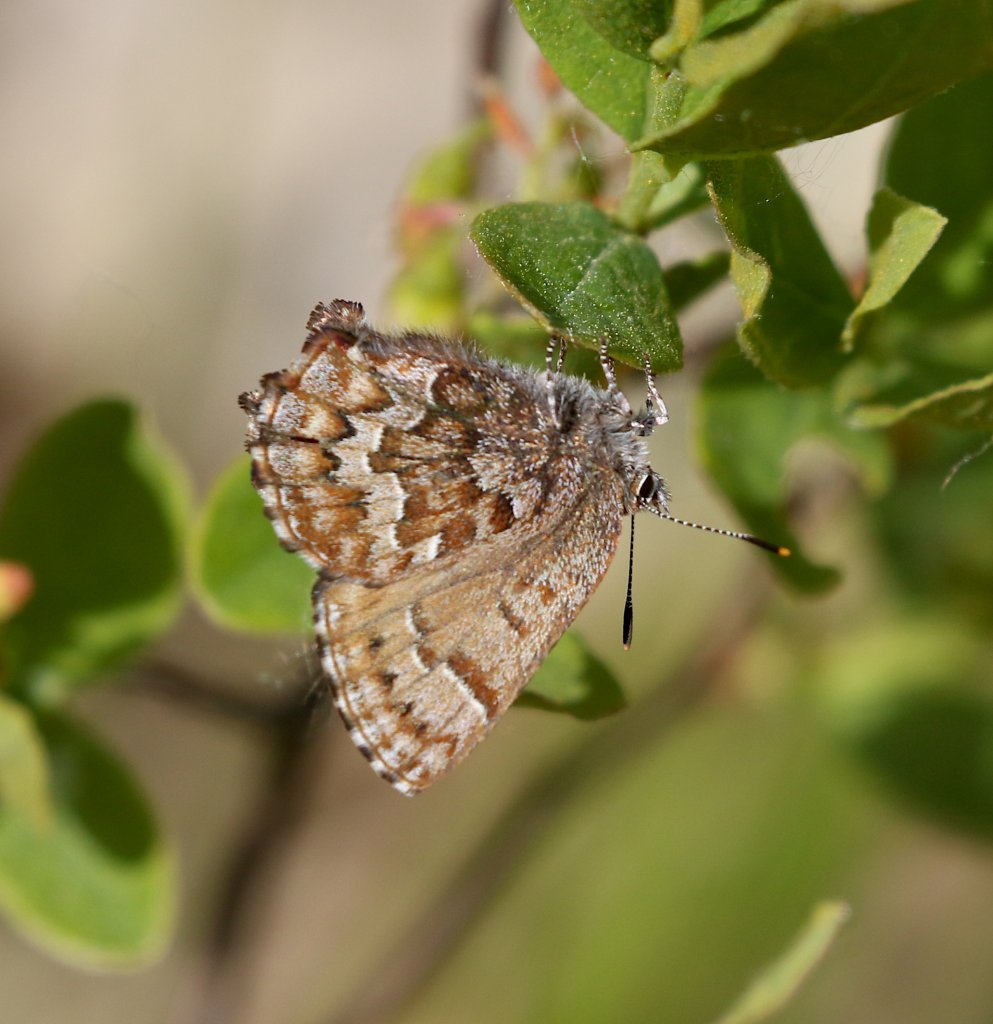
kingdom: Animalia
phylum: Arthropoda
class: Insecta
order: Lepidoptera
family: Lycaenidae
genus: Incisalia
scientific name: Incisalia niphon
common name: Eastern Pine Elfin
